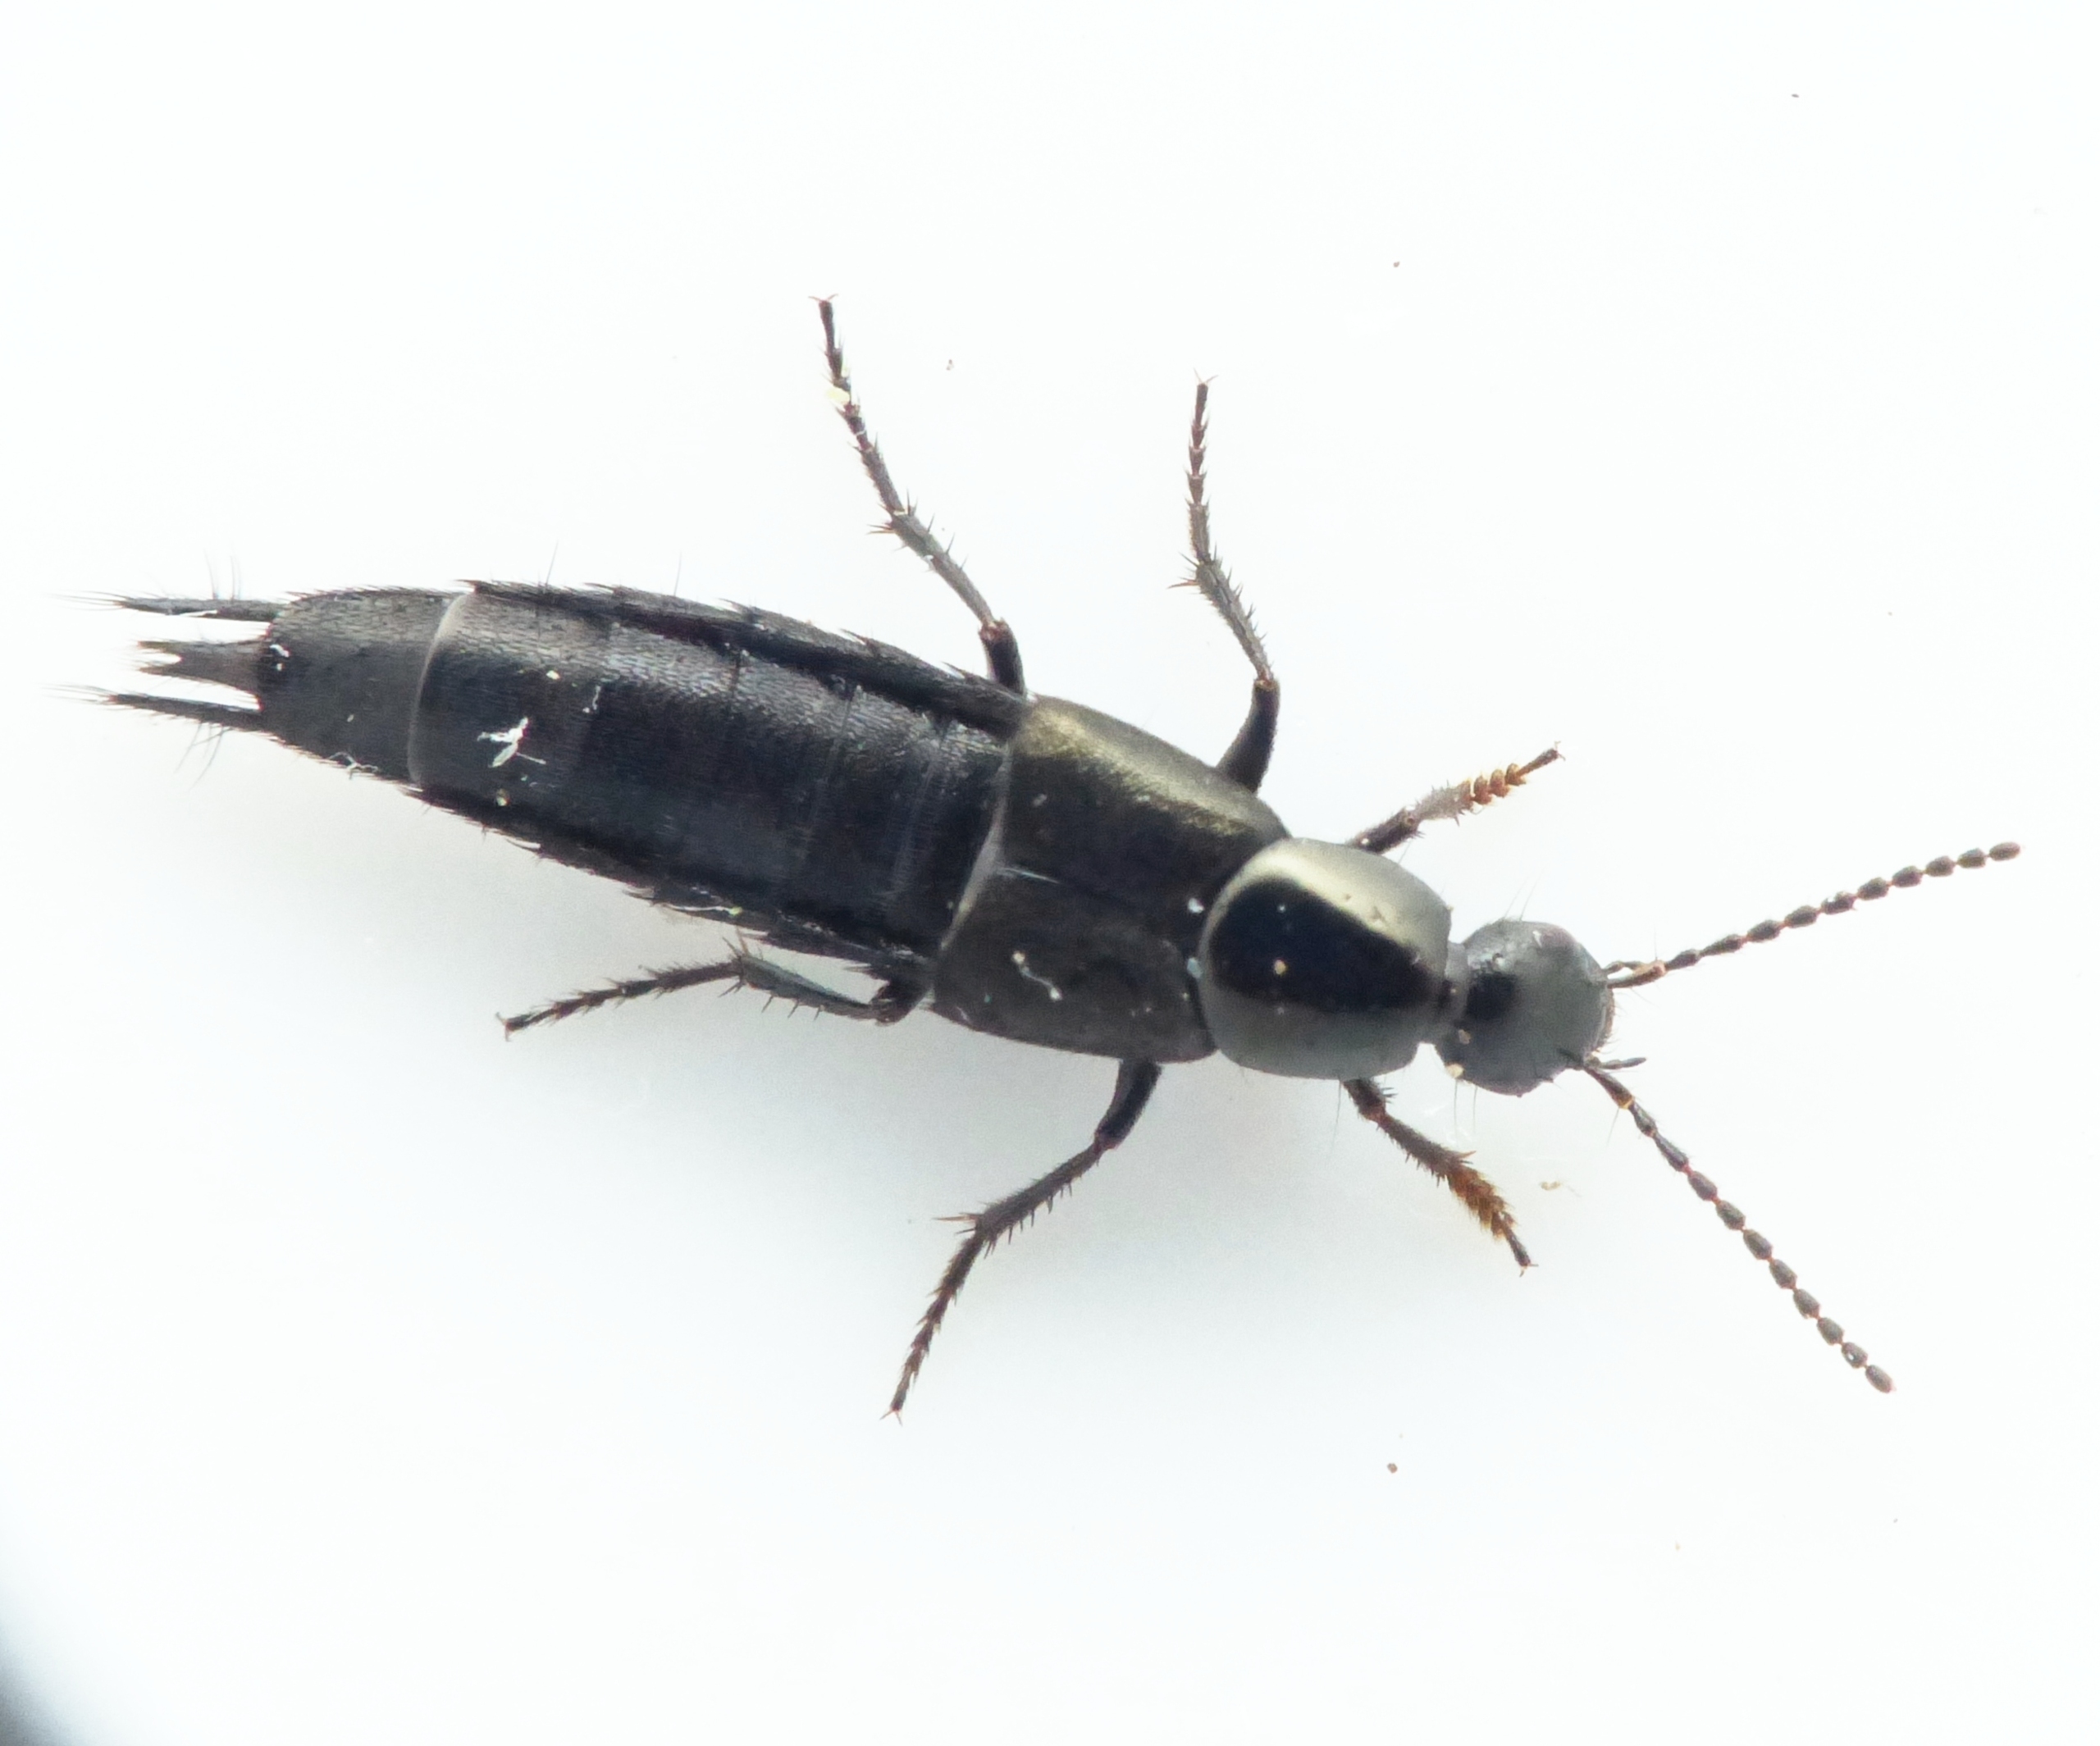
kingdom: Animalia
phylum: Arthropoda
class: Insecta
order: Coleoptera
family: Staphylinidae
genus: Philonthus
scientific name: Philonthus decorus
